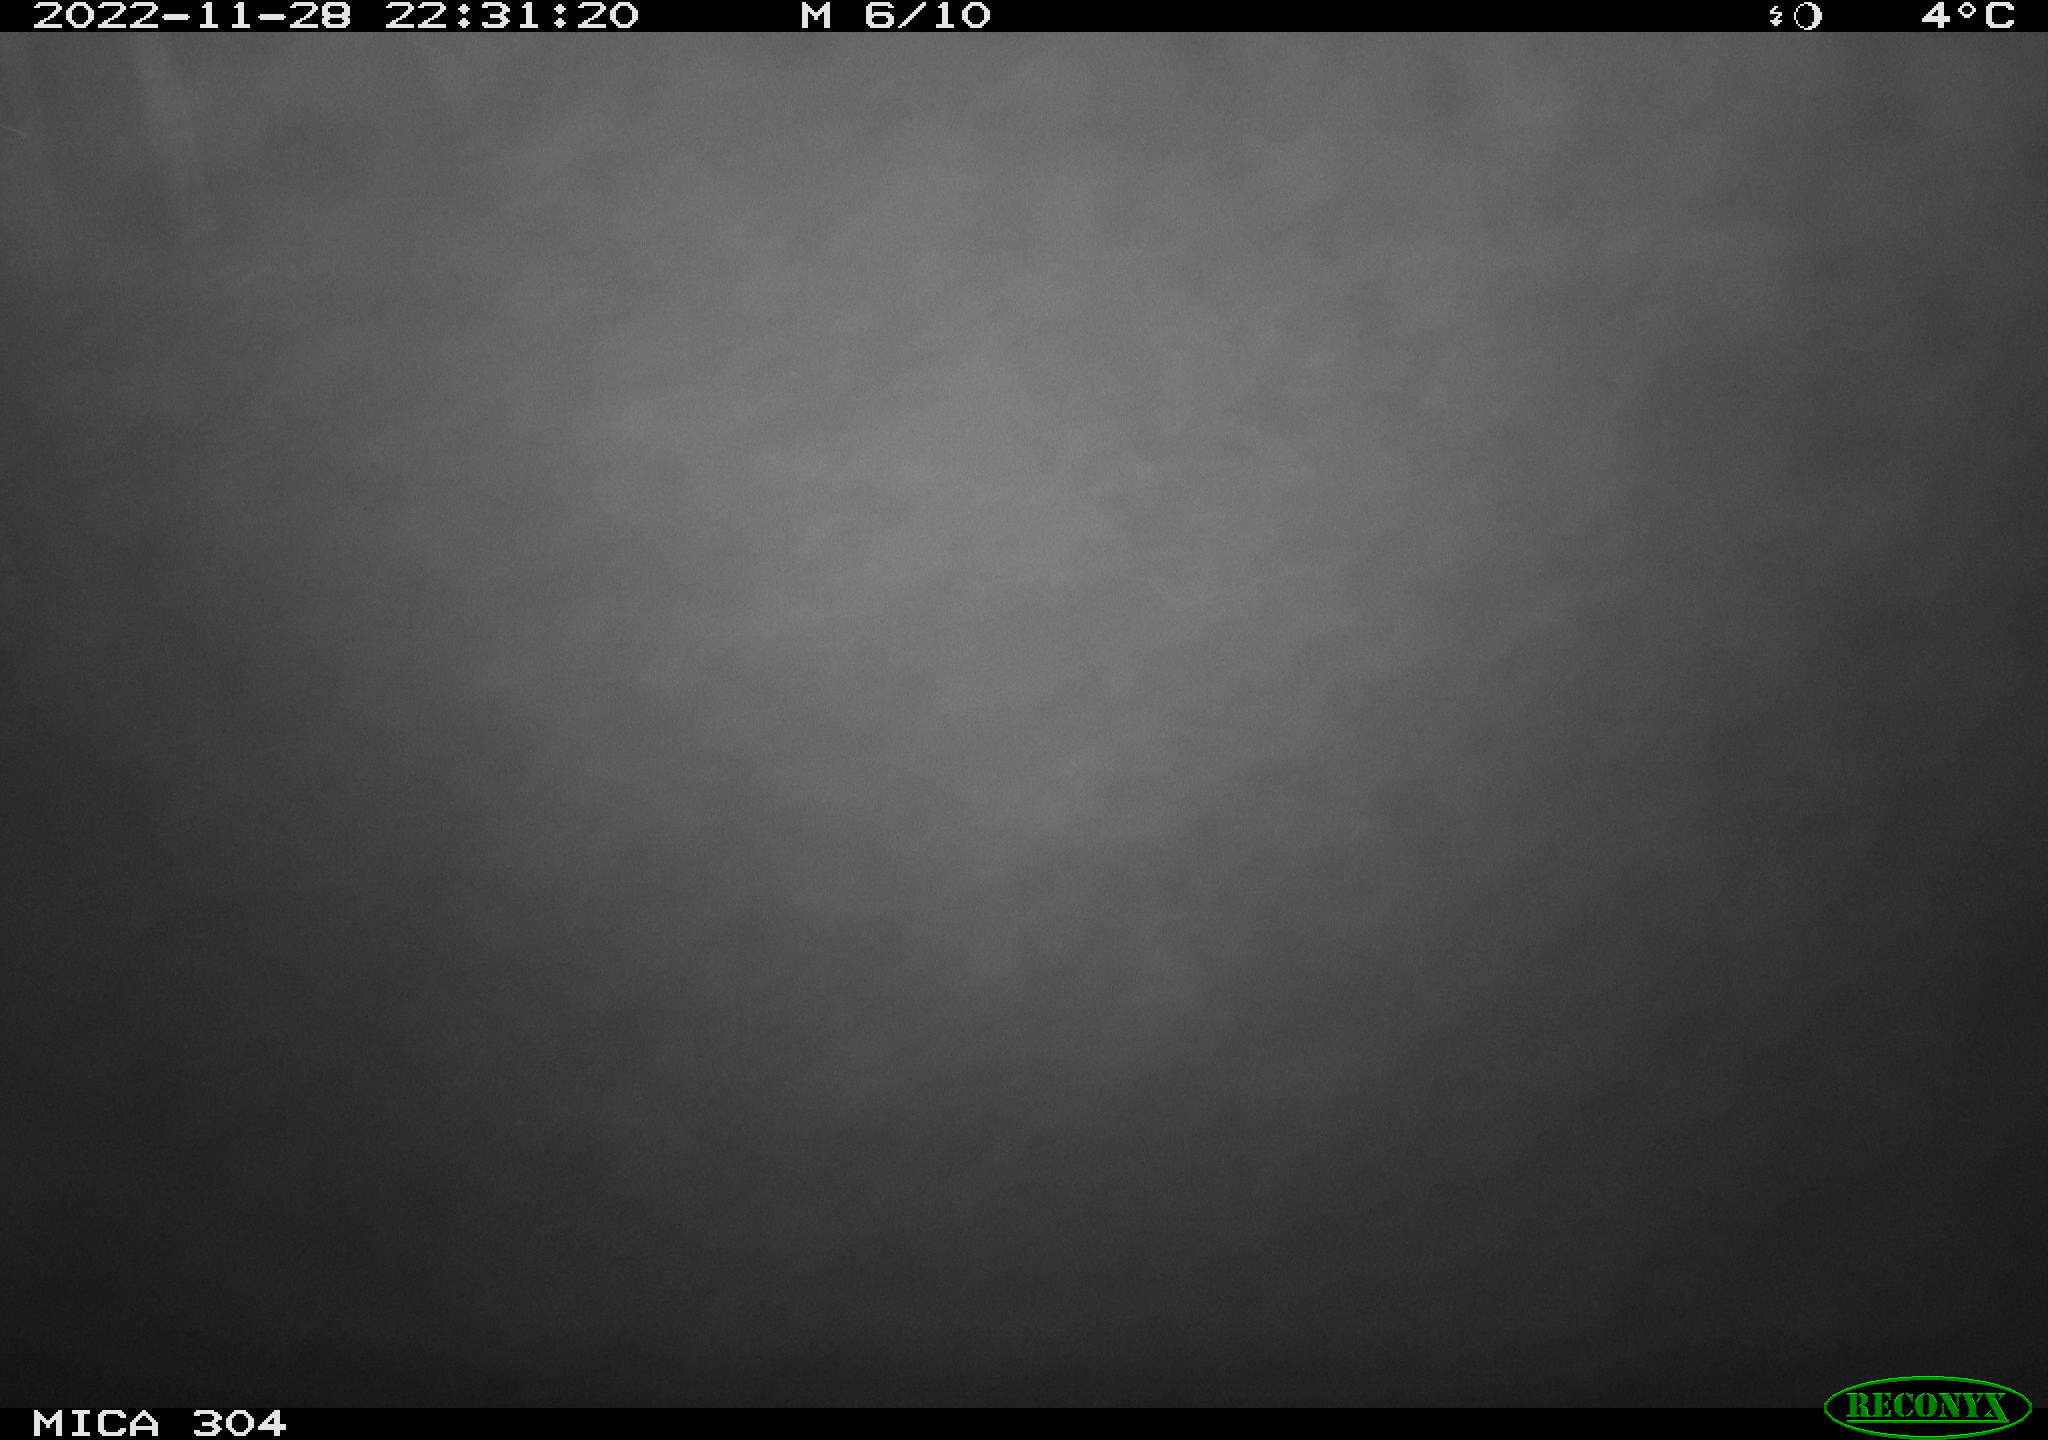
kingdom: Animalia
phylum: Chordata
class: Mammalia
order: Rodentia
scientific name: Rodentia
